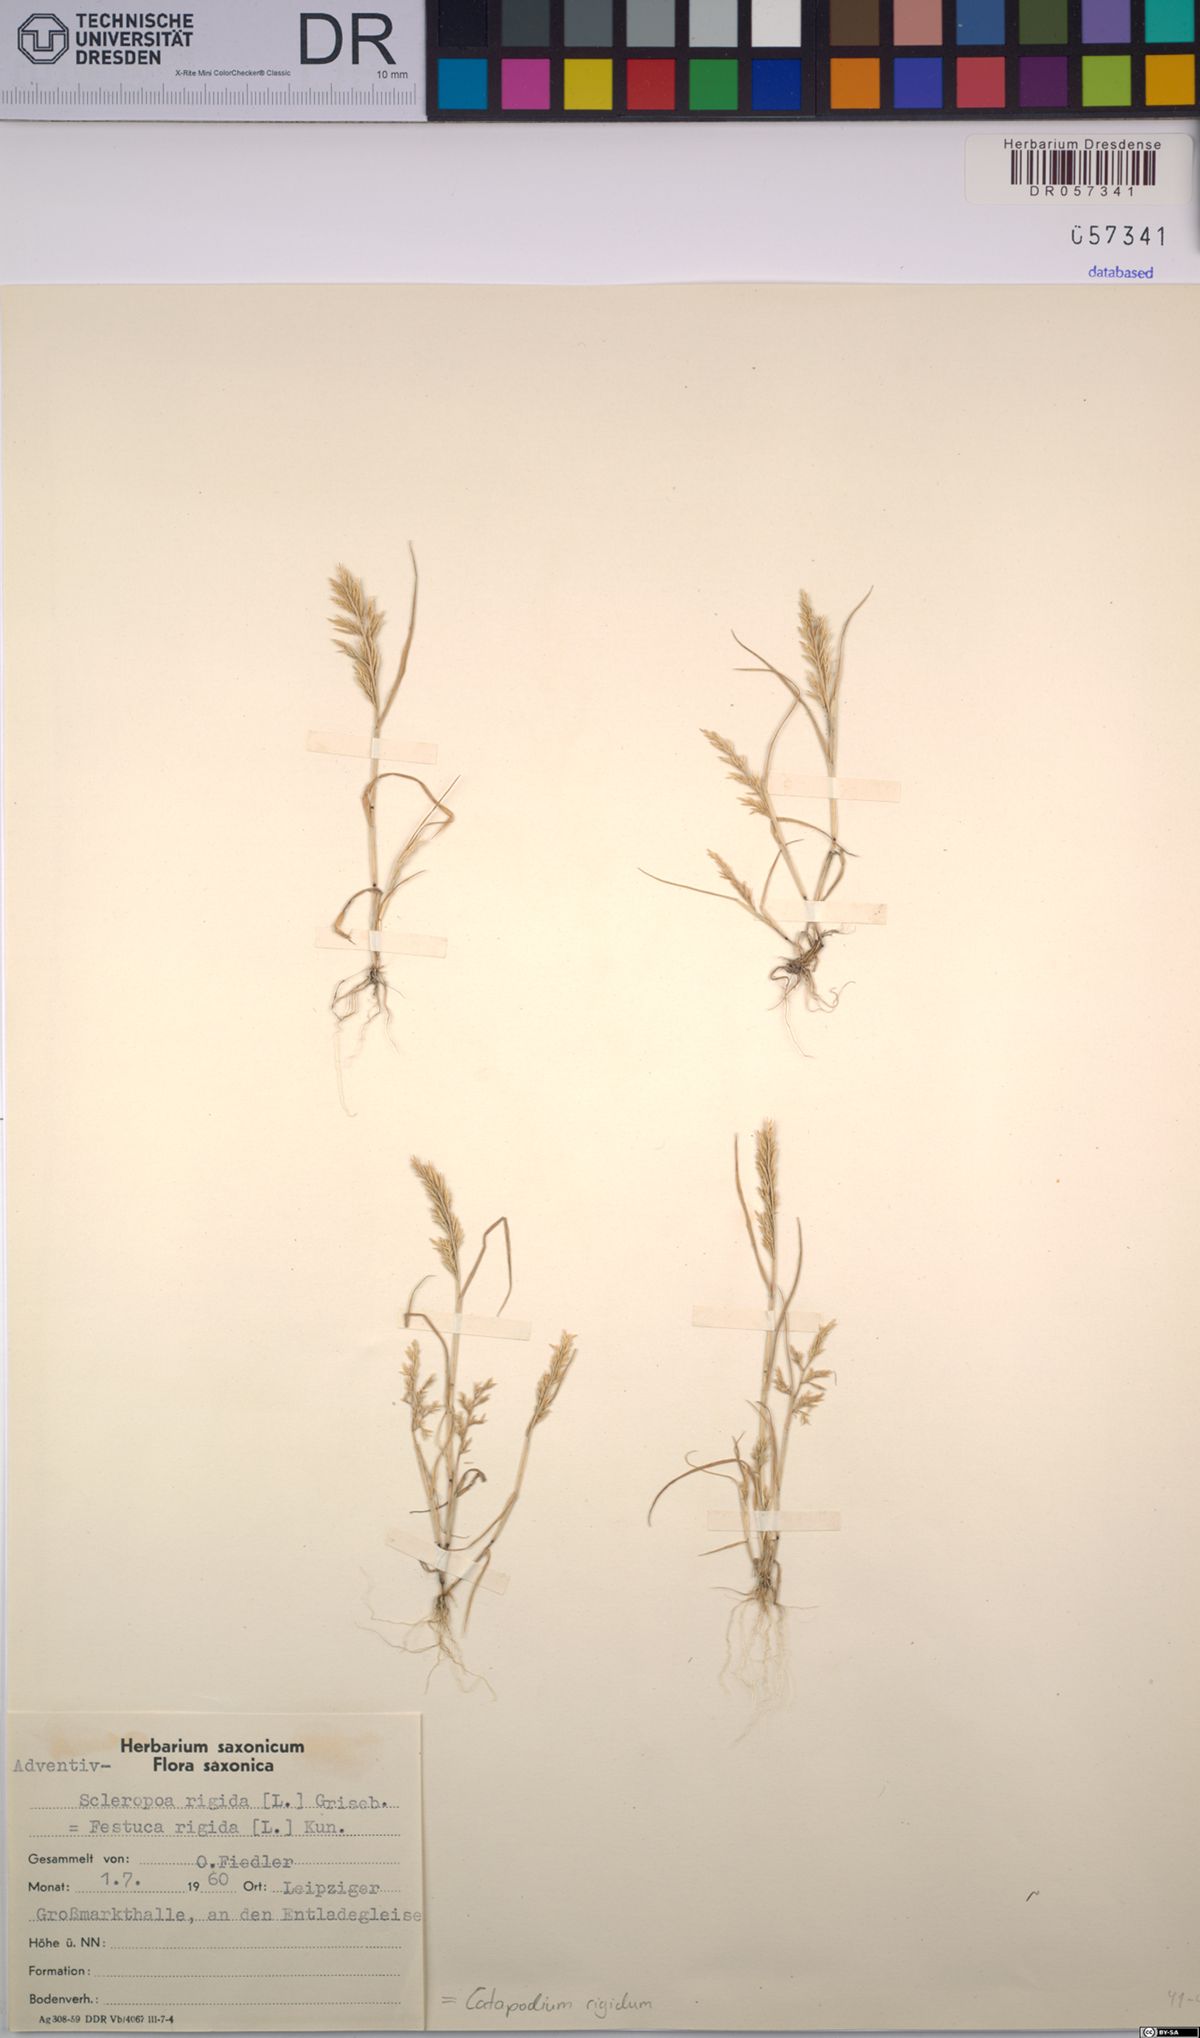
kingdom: Plantae
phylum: Tracheophyta
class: Liliopsida
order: Poales
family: Poaceae
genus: Catapodium
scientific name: Catapodium rigidum
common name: Fern-grass
